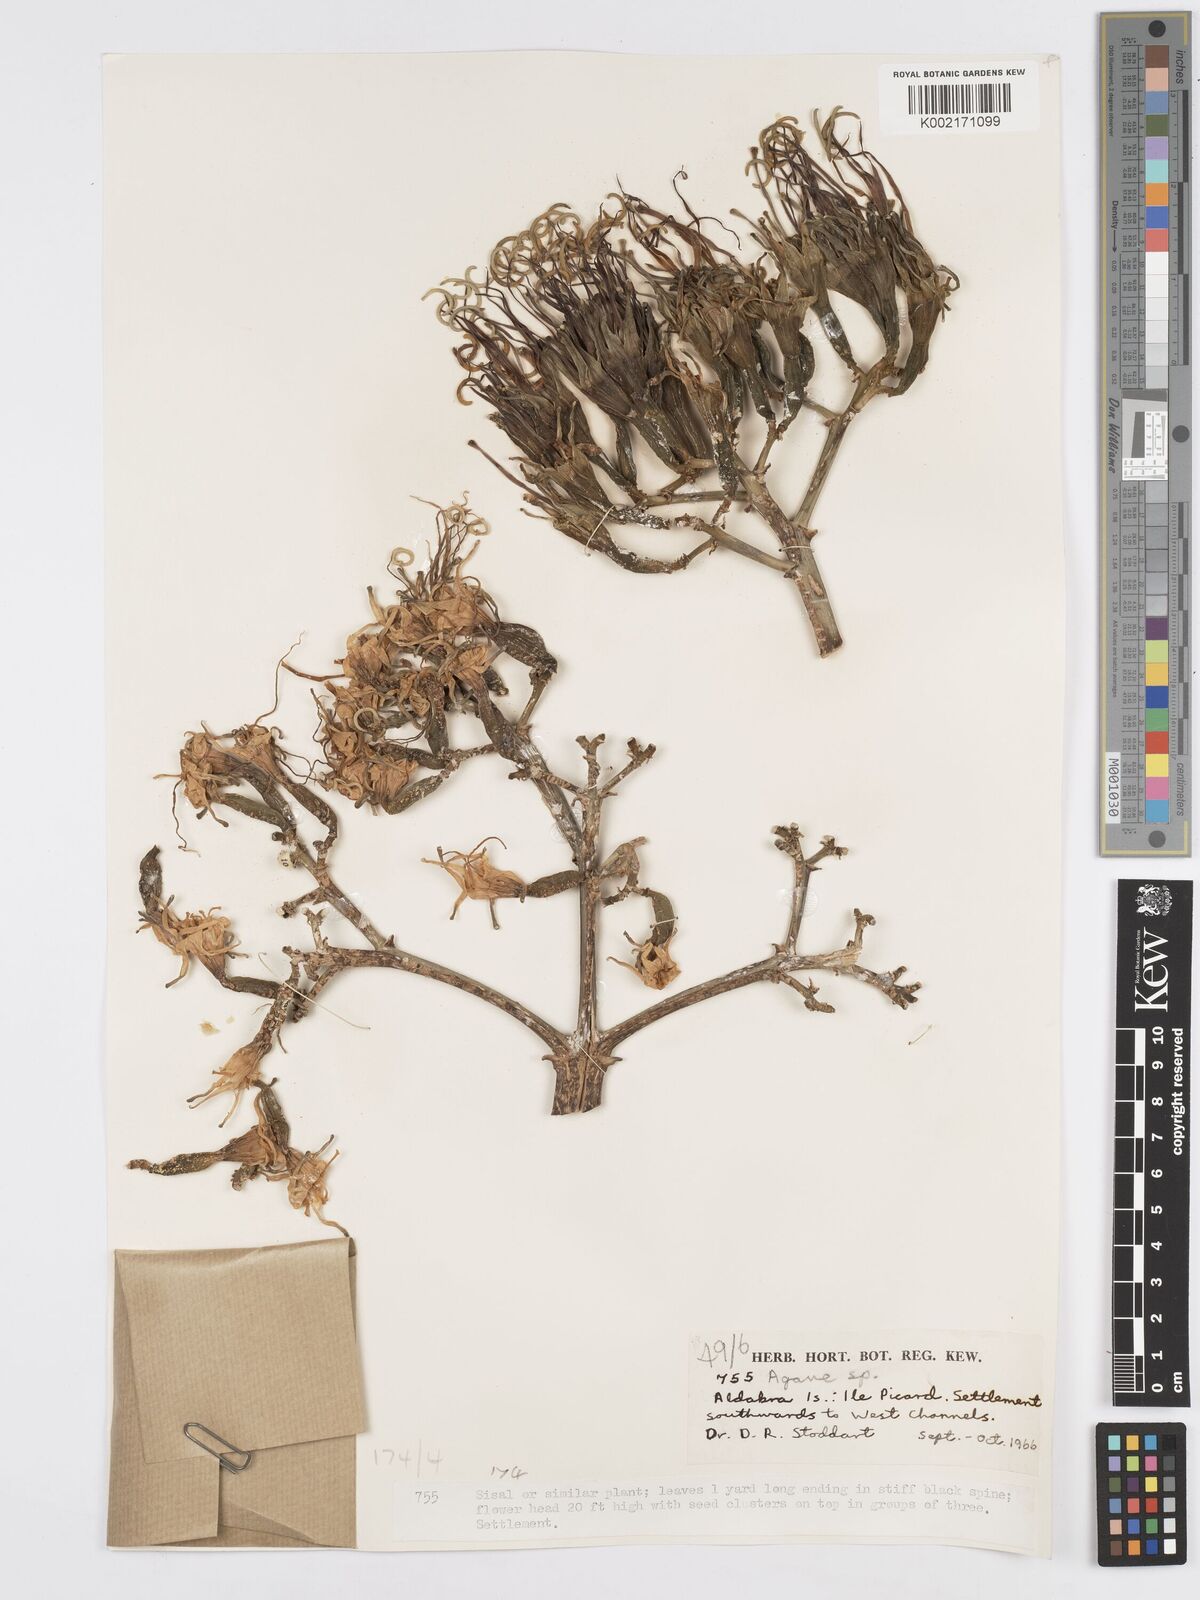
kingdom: Plantae
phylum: Tracheophyta
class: Liliopsida
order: Asparagales
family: Asparagaceae
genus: Agave
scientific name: Agave sisalana
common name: Sisal hemp
